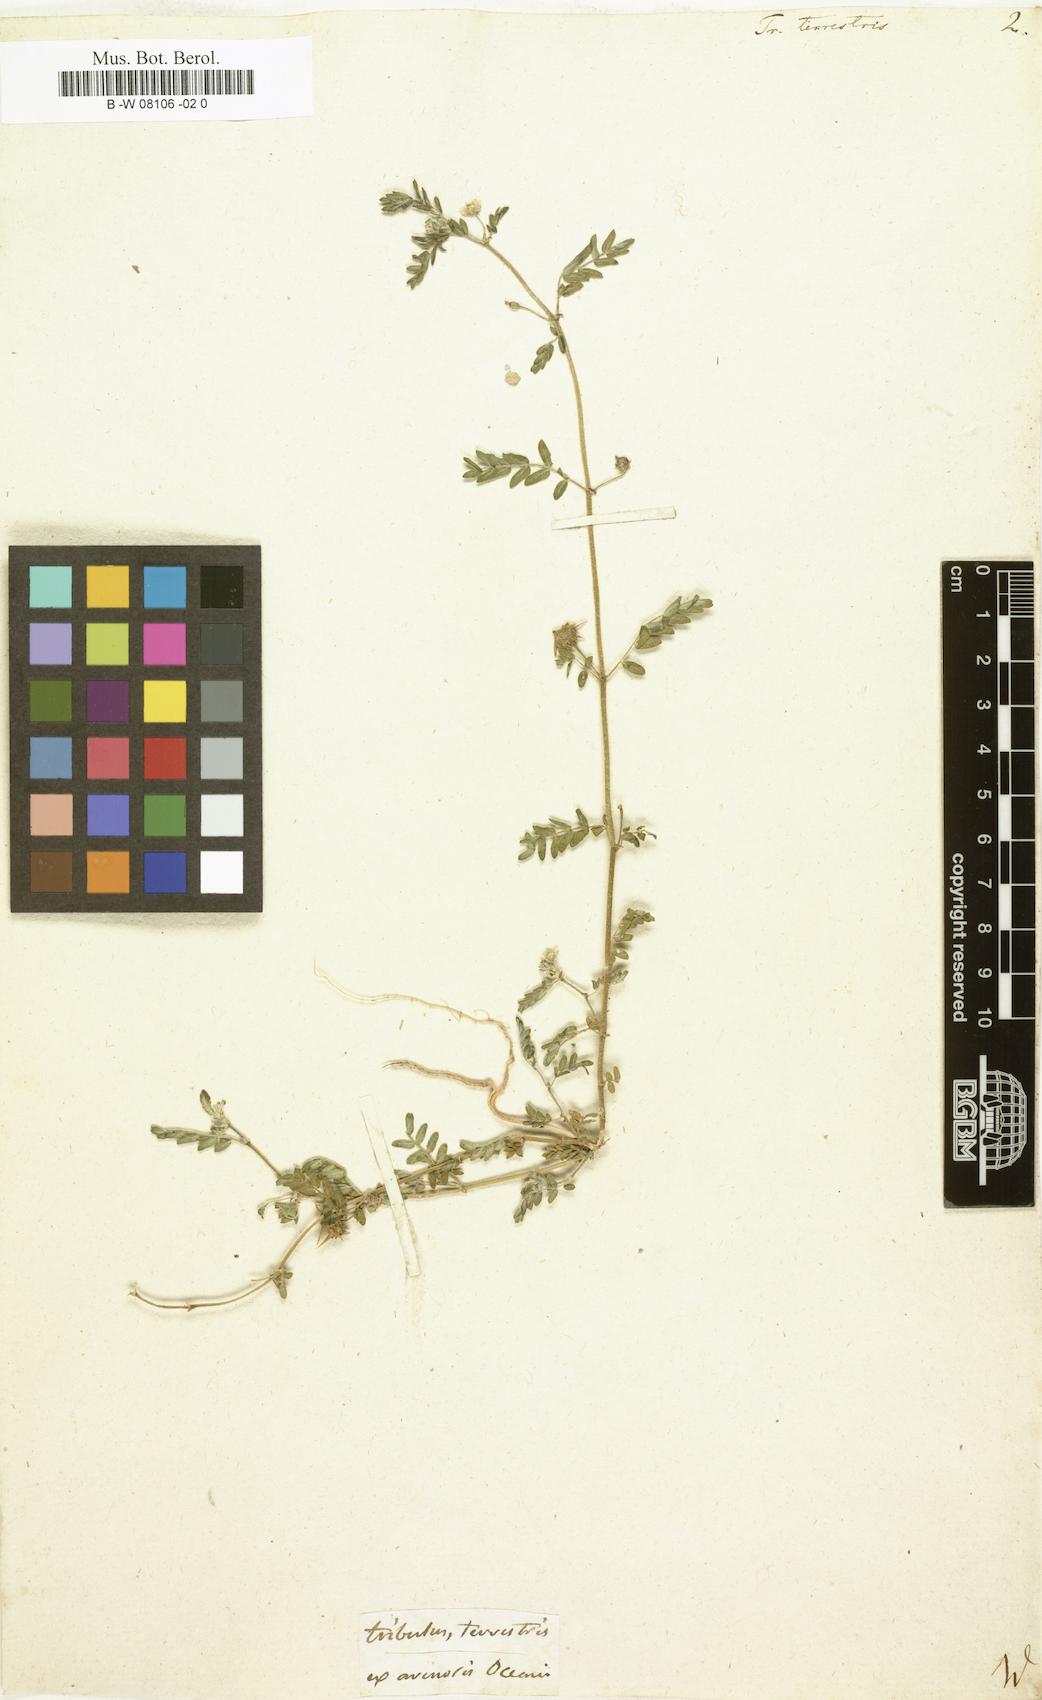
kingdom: Plantae
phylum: Tracheophyta
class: Magnoliopsida
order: Zygophyllales
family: Zygophyllaceae
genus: Tribulus
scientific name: Tribulus terrestris
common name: Puncturevine
